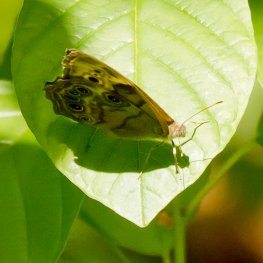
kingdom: Animalia
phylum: Arthropoda
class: Insecta
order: Lepidoptera
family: Nymphalidae
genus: Lethe
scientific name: Lethe anthedon
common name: Northern Pearly-Eye
